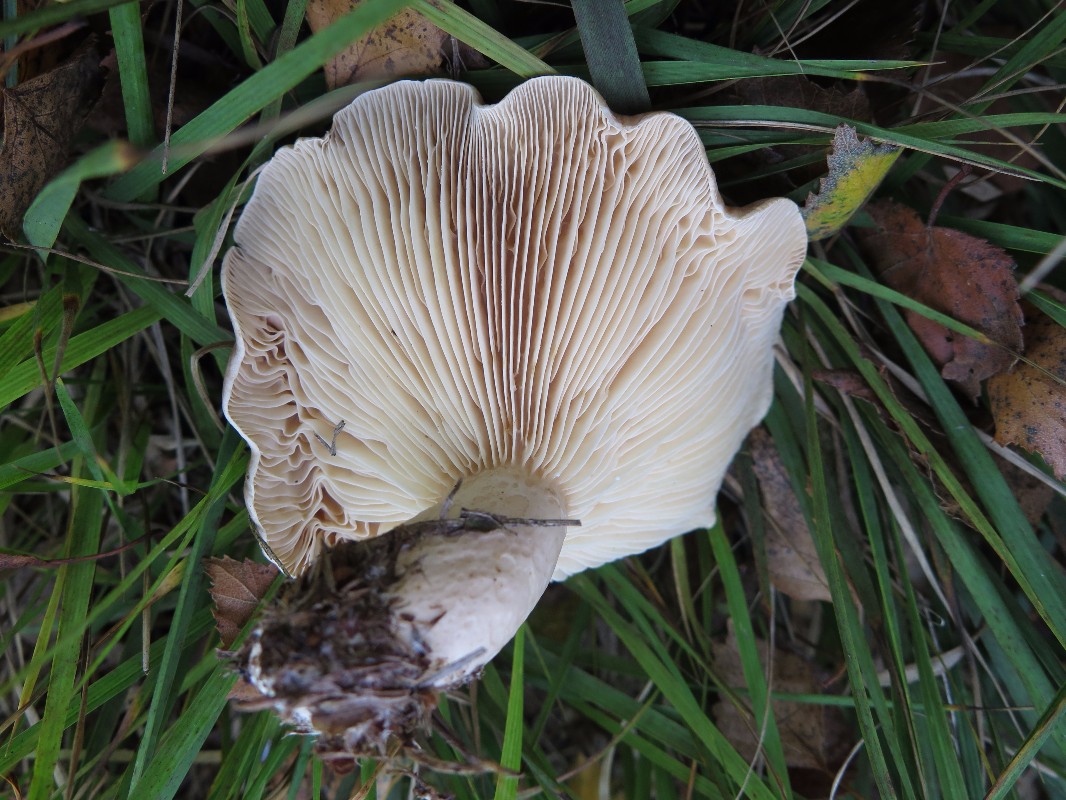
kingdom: Fungi
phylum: Basidiomycota
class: Agaricomycetes
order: Russulales
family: Russulaceae
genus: Lactarius
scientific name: Lactarius trivialis
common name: nordisk mælkehat
